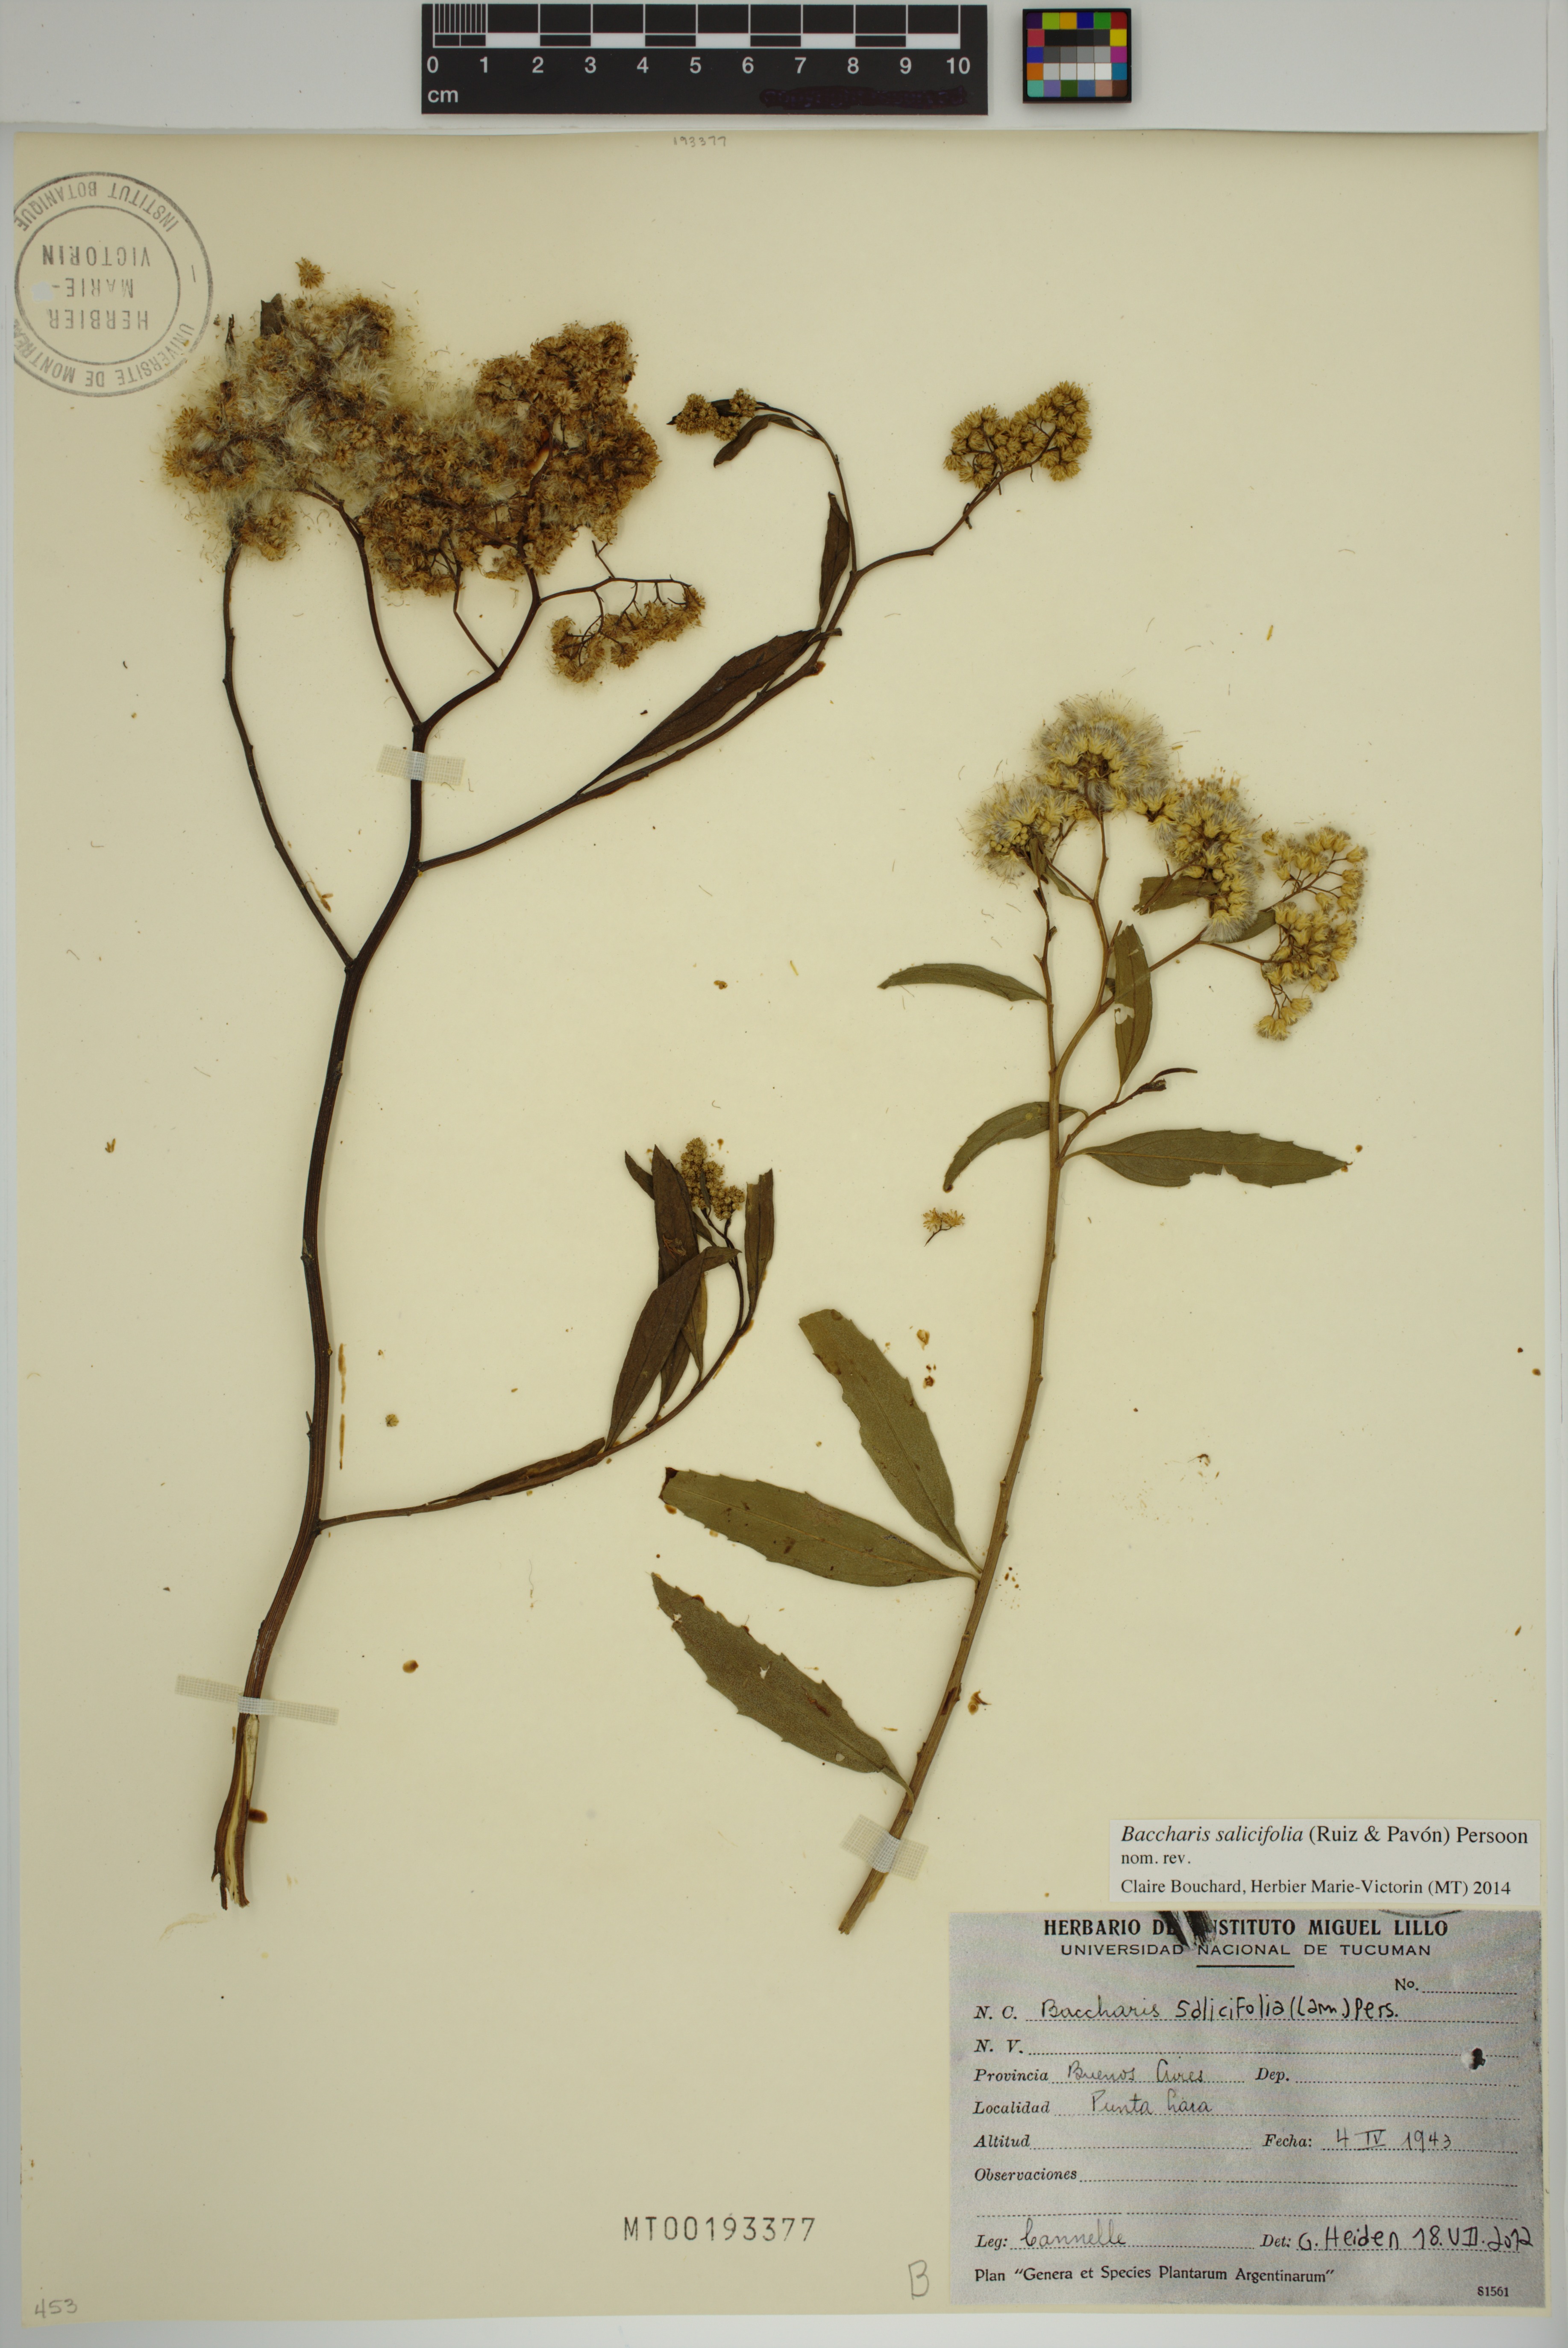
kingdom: Plantae
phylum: Tracheophyta
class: Magnoliopsida
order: Asterales
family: Asteraceae
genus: Baccharis
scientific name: Baccharis salicifolia
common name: Sticky baccharis
